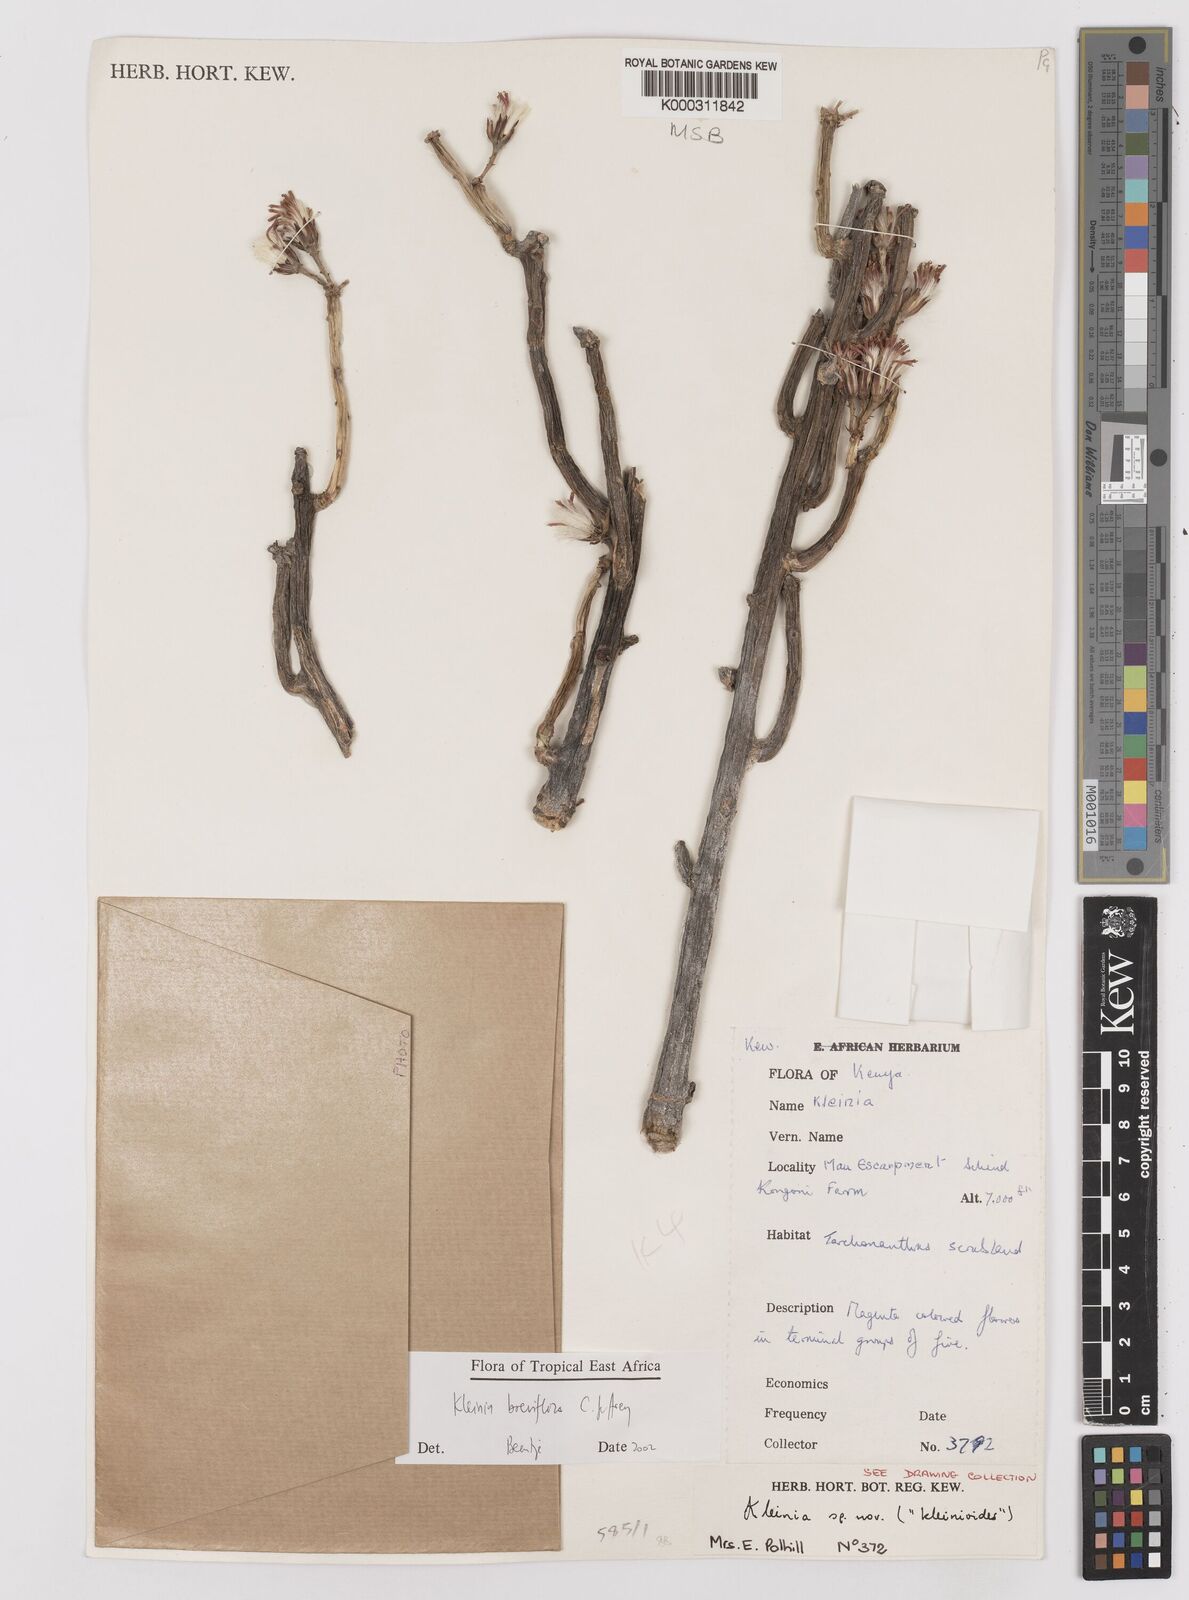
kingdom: Plantae
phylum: Tracheophyta
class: Magnoliopsida
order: Asterales
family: Asteraceae
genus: Kleinia
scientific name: Kleinia polycotoma
